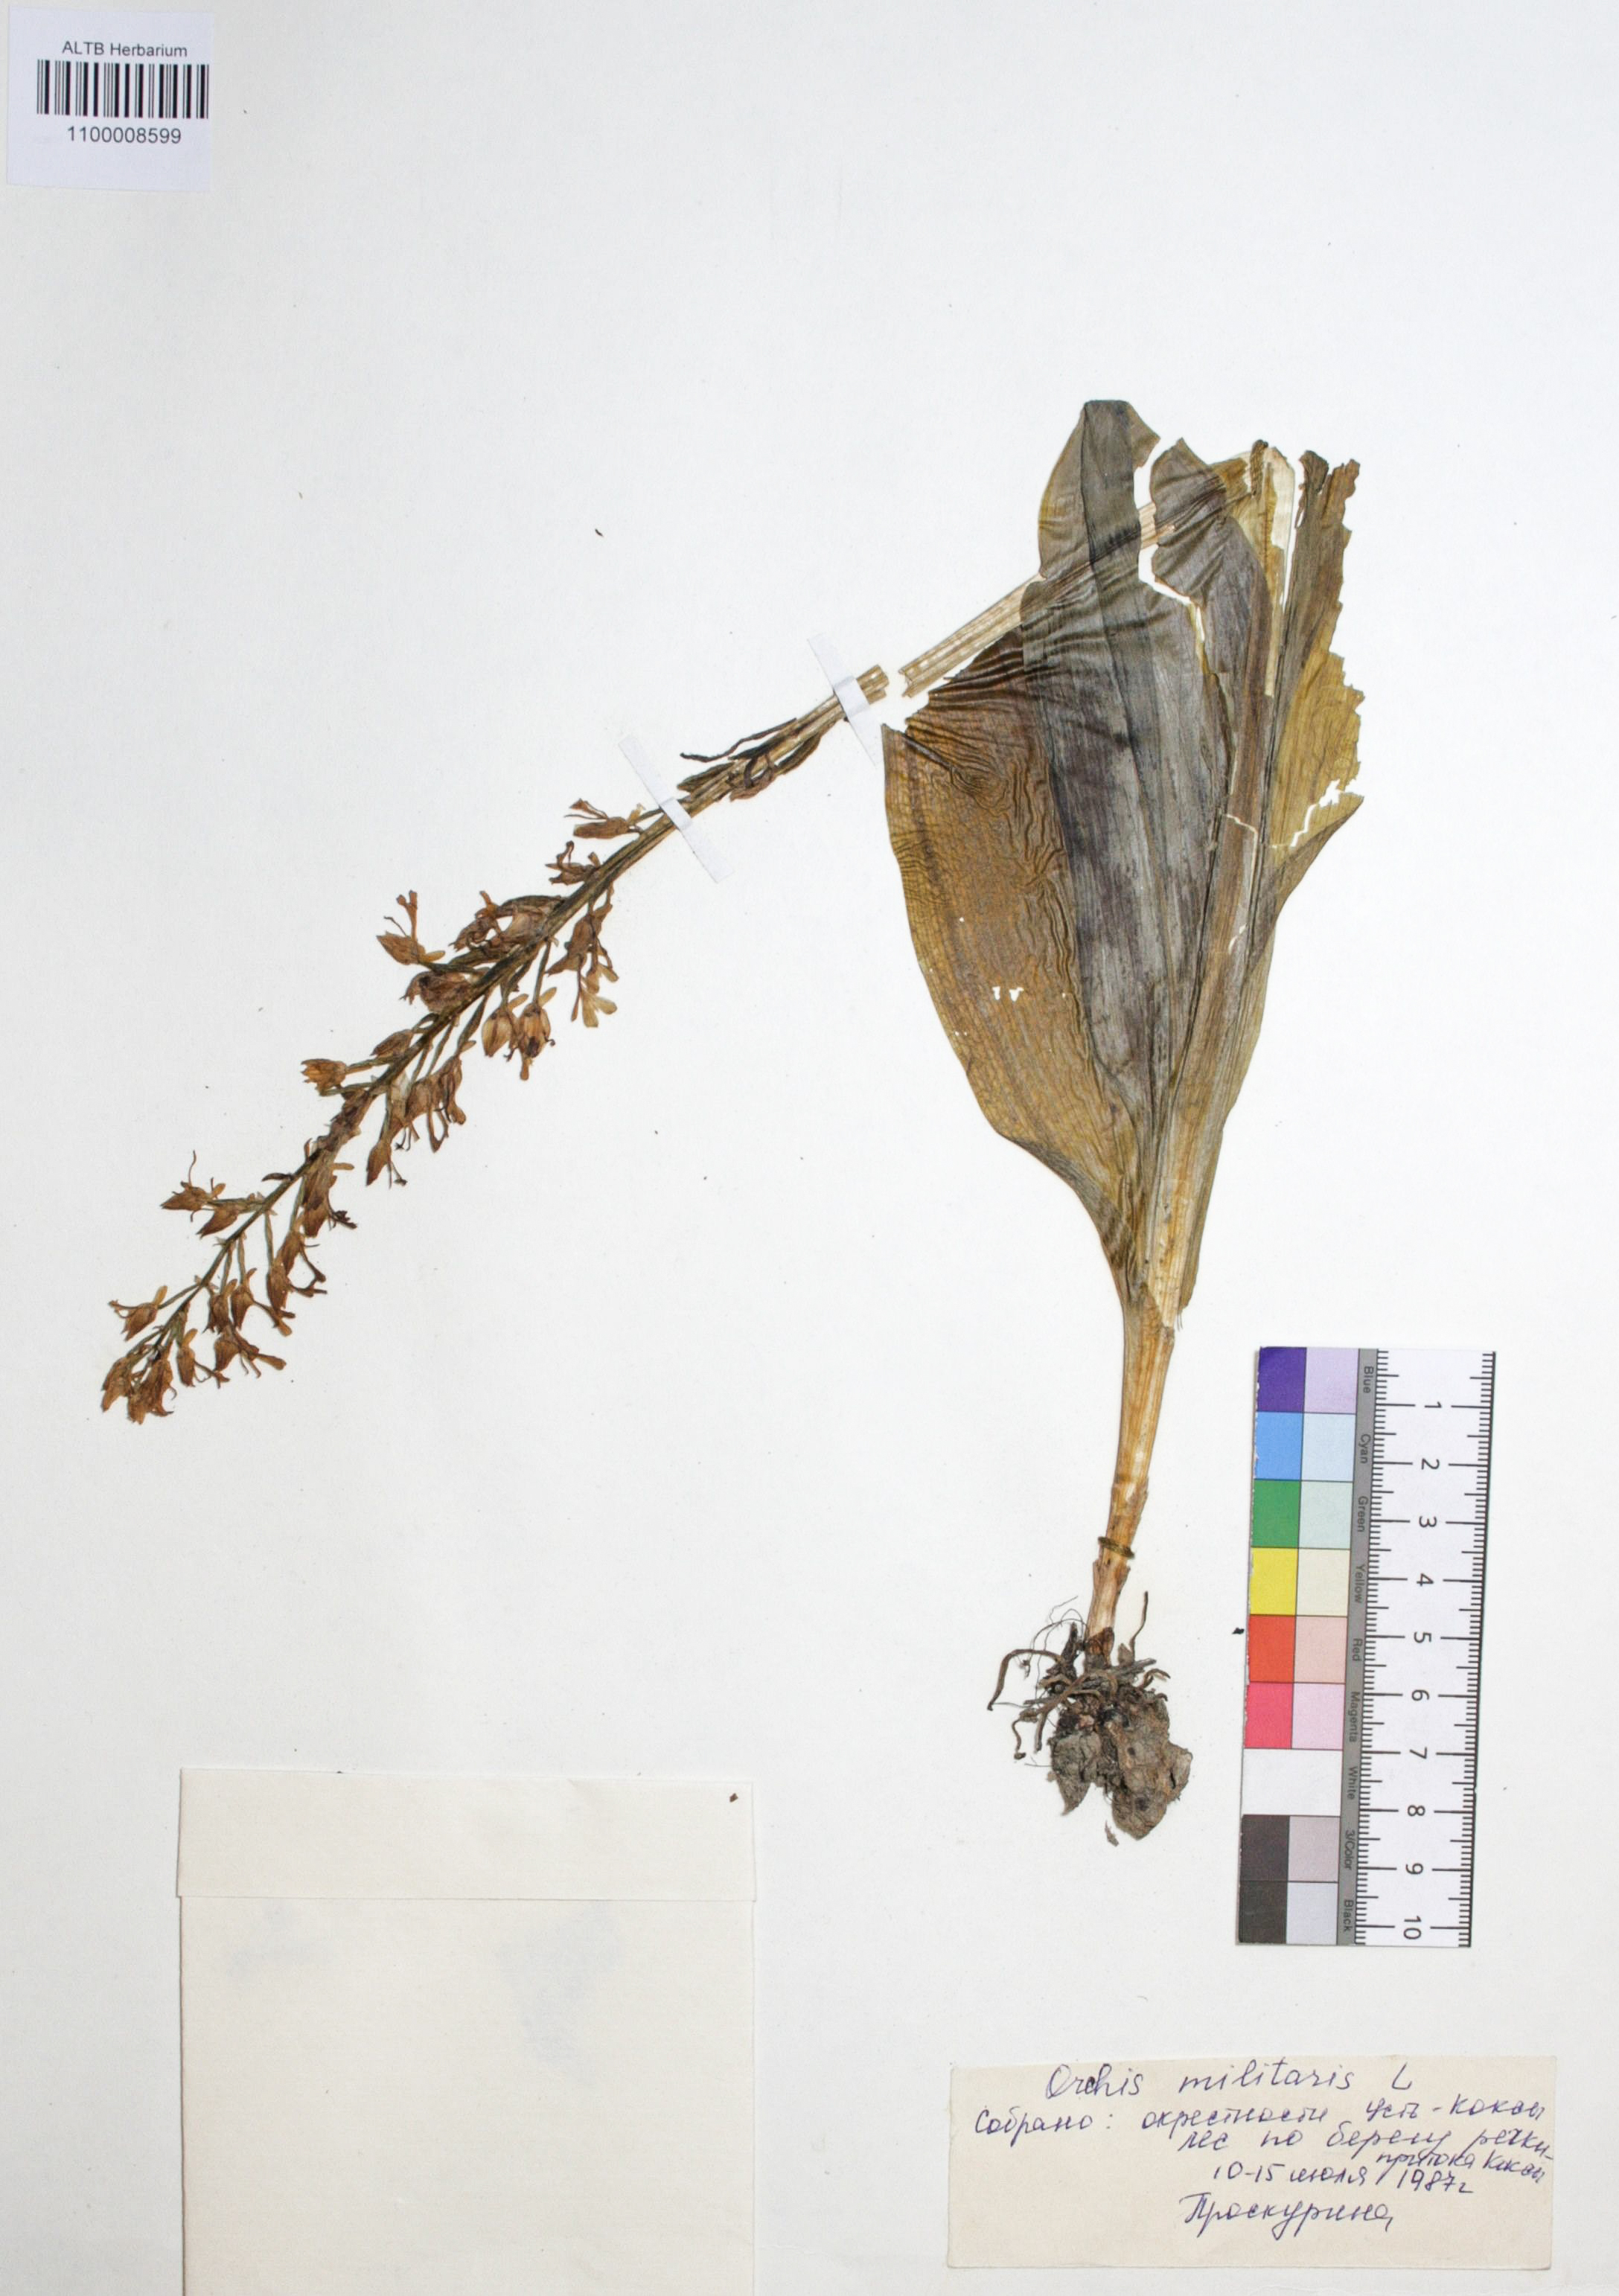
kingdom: Plantae
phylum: Tracheophyta
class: Liliopsida
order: Asparagales
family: Orchidaceae
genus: Orchis
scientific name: Orchis militaris
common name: Military orchid
